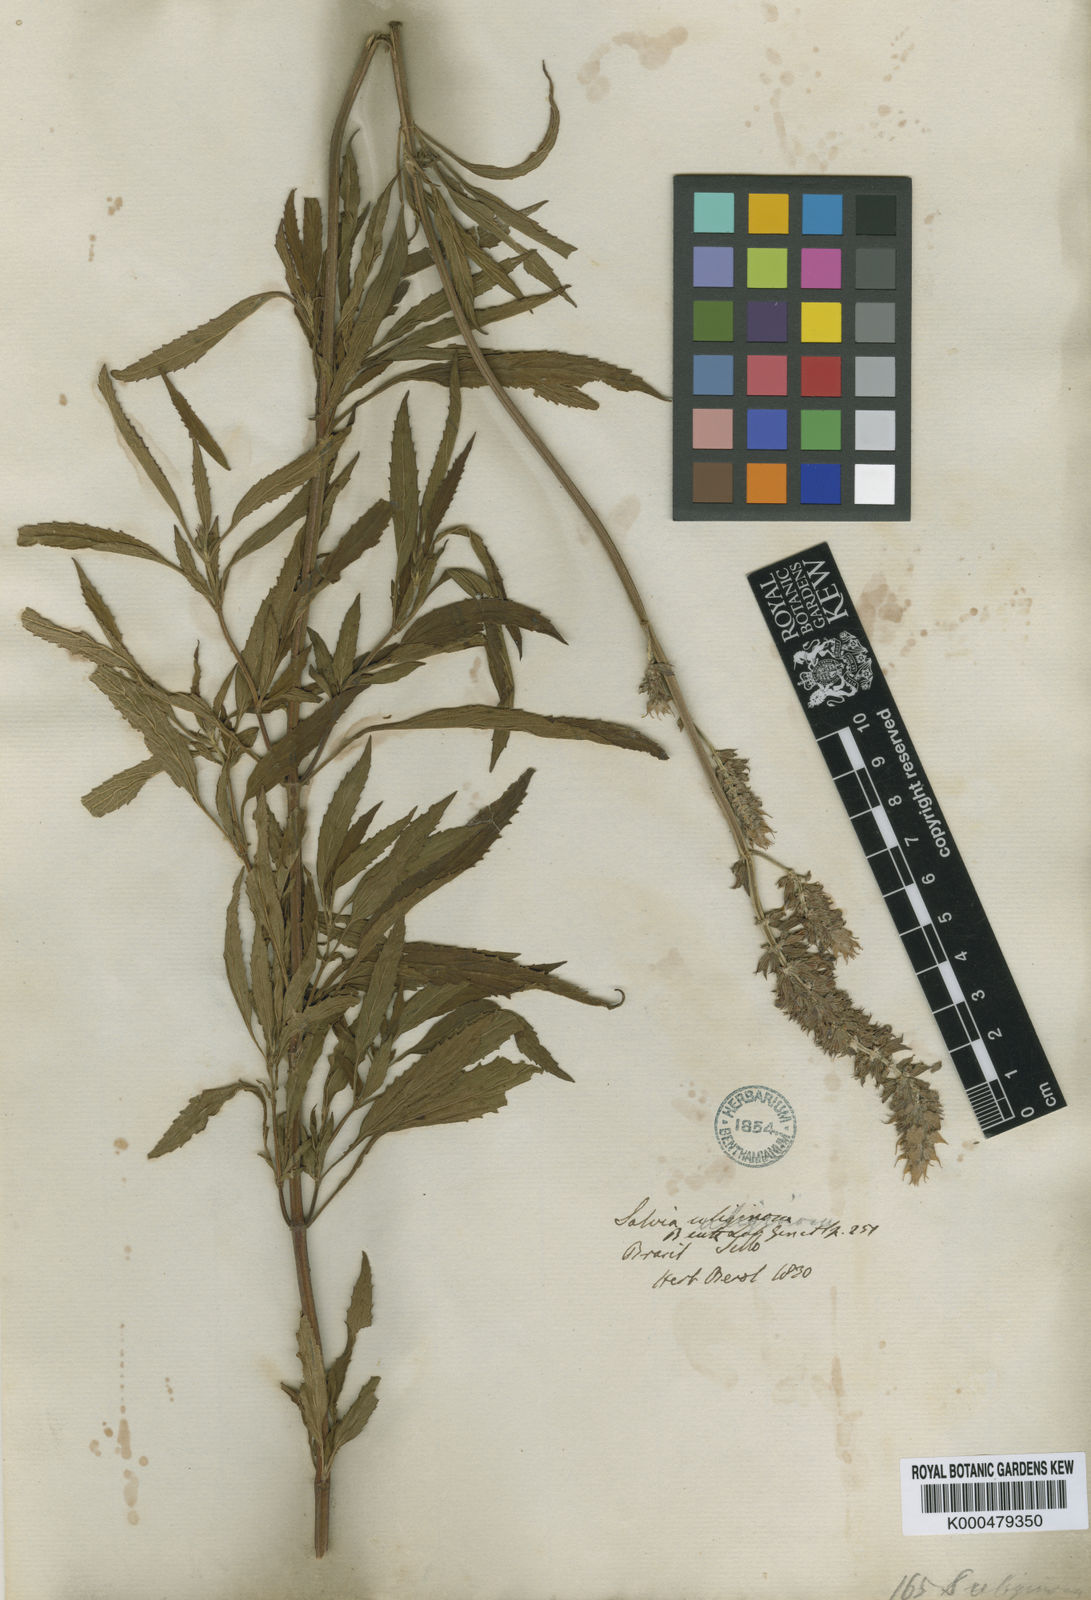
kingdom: Plantae
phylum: Tracheophyta
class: Magnoliopsida
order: Lamiales
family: Lamiaceae
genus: Salvia
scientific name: Salvia uliginosa
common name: Bog sage
